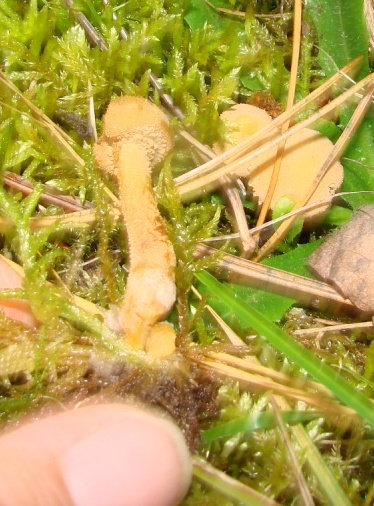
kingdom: Fungi
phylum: Basidiomycota
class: Agaricomycetes
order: Agaricales
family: Tricholomataceae
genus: Cystoderma
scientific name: Cystoderma amianthinum
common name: okkergul grynhat
